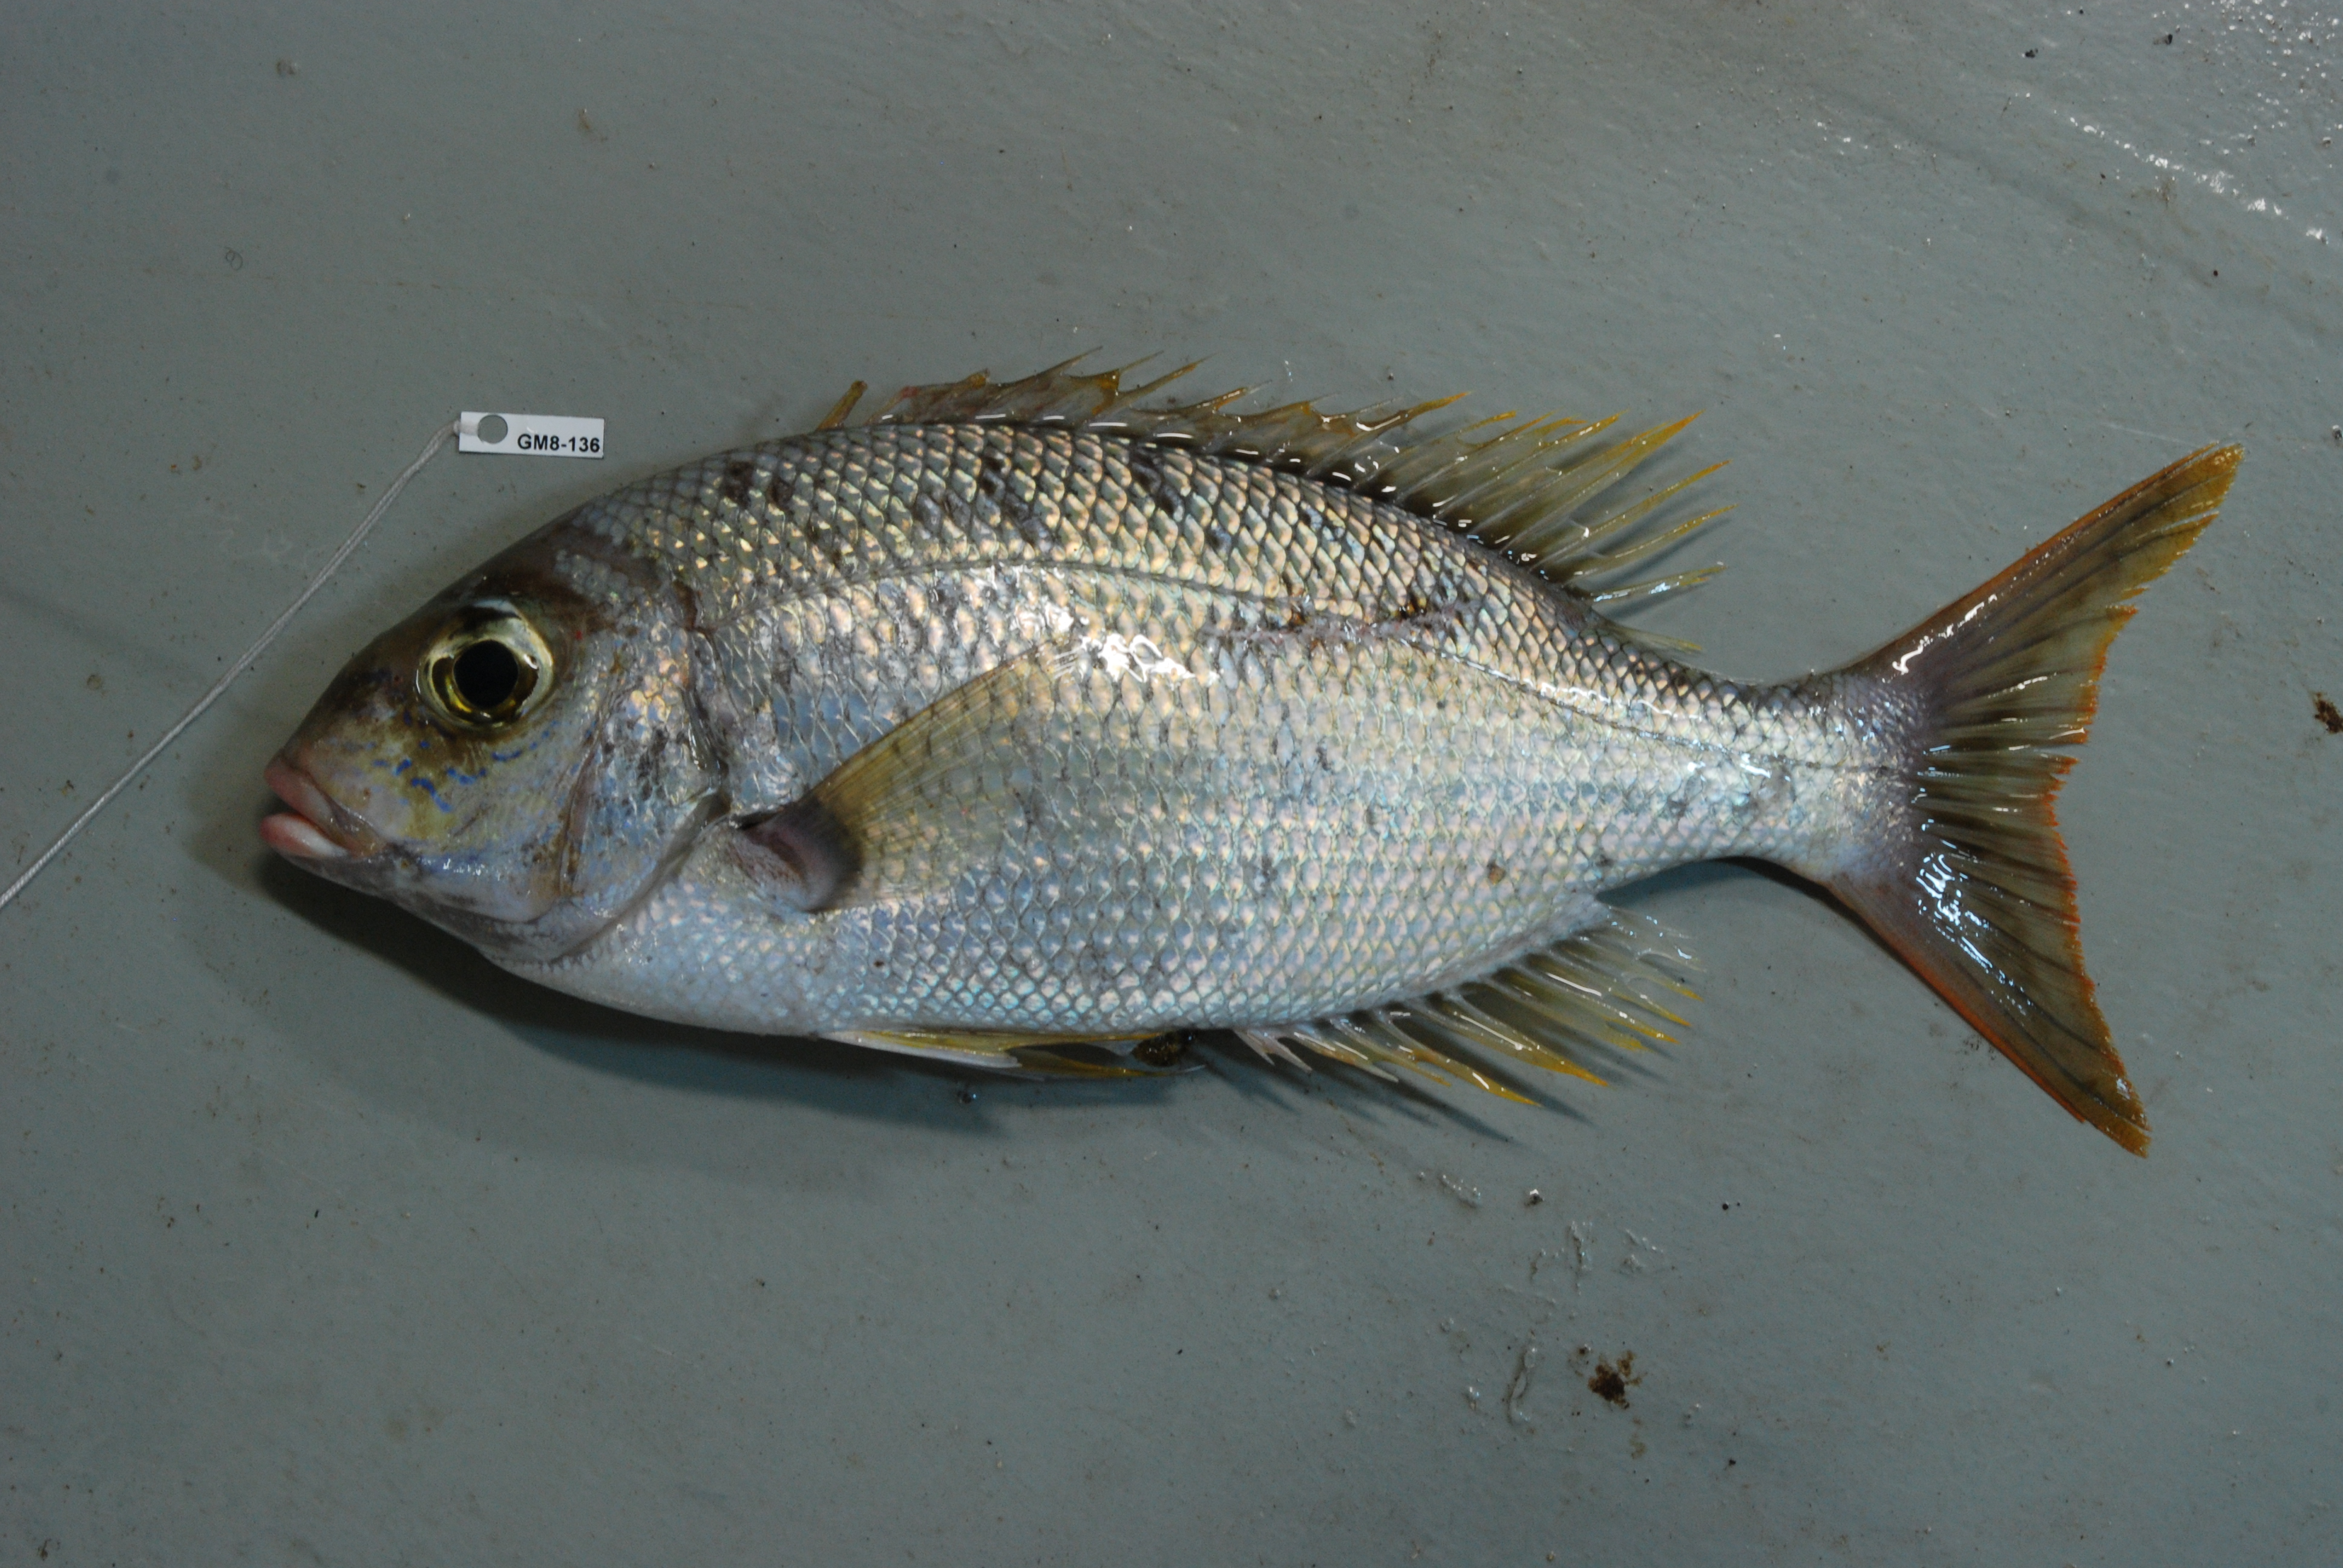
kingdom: Animalia
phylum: Chordata
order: Perciformes
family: Lethrinidae
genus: Gymnocranius
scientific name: Gymnocranius grandoculis
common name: Blue-lined large-eye bream
